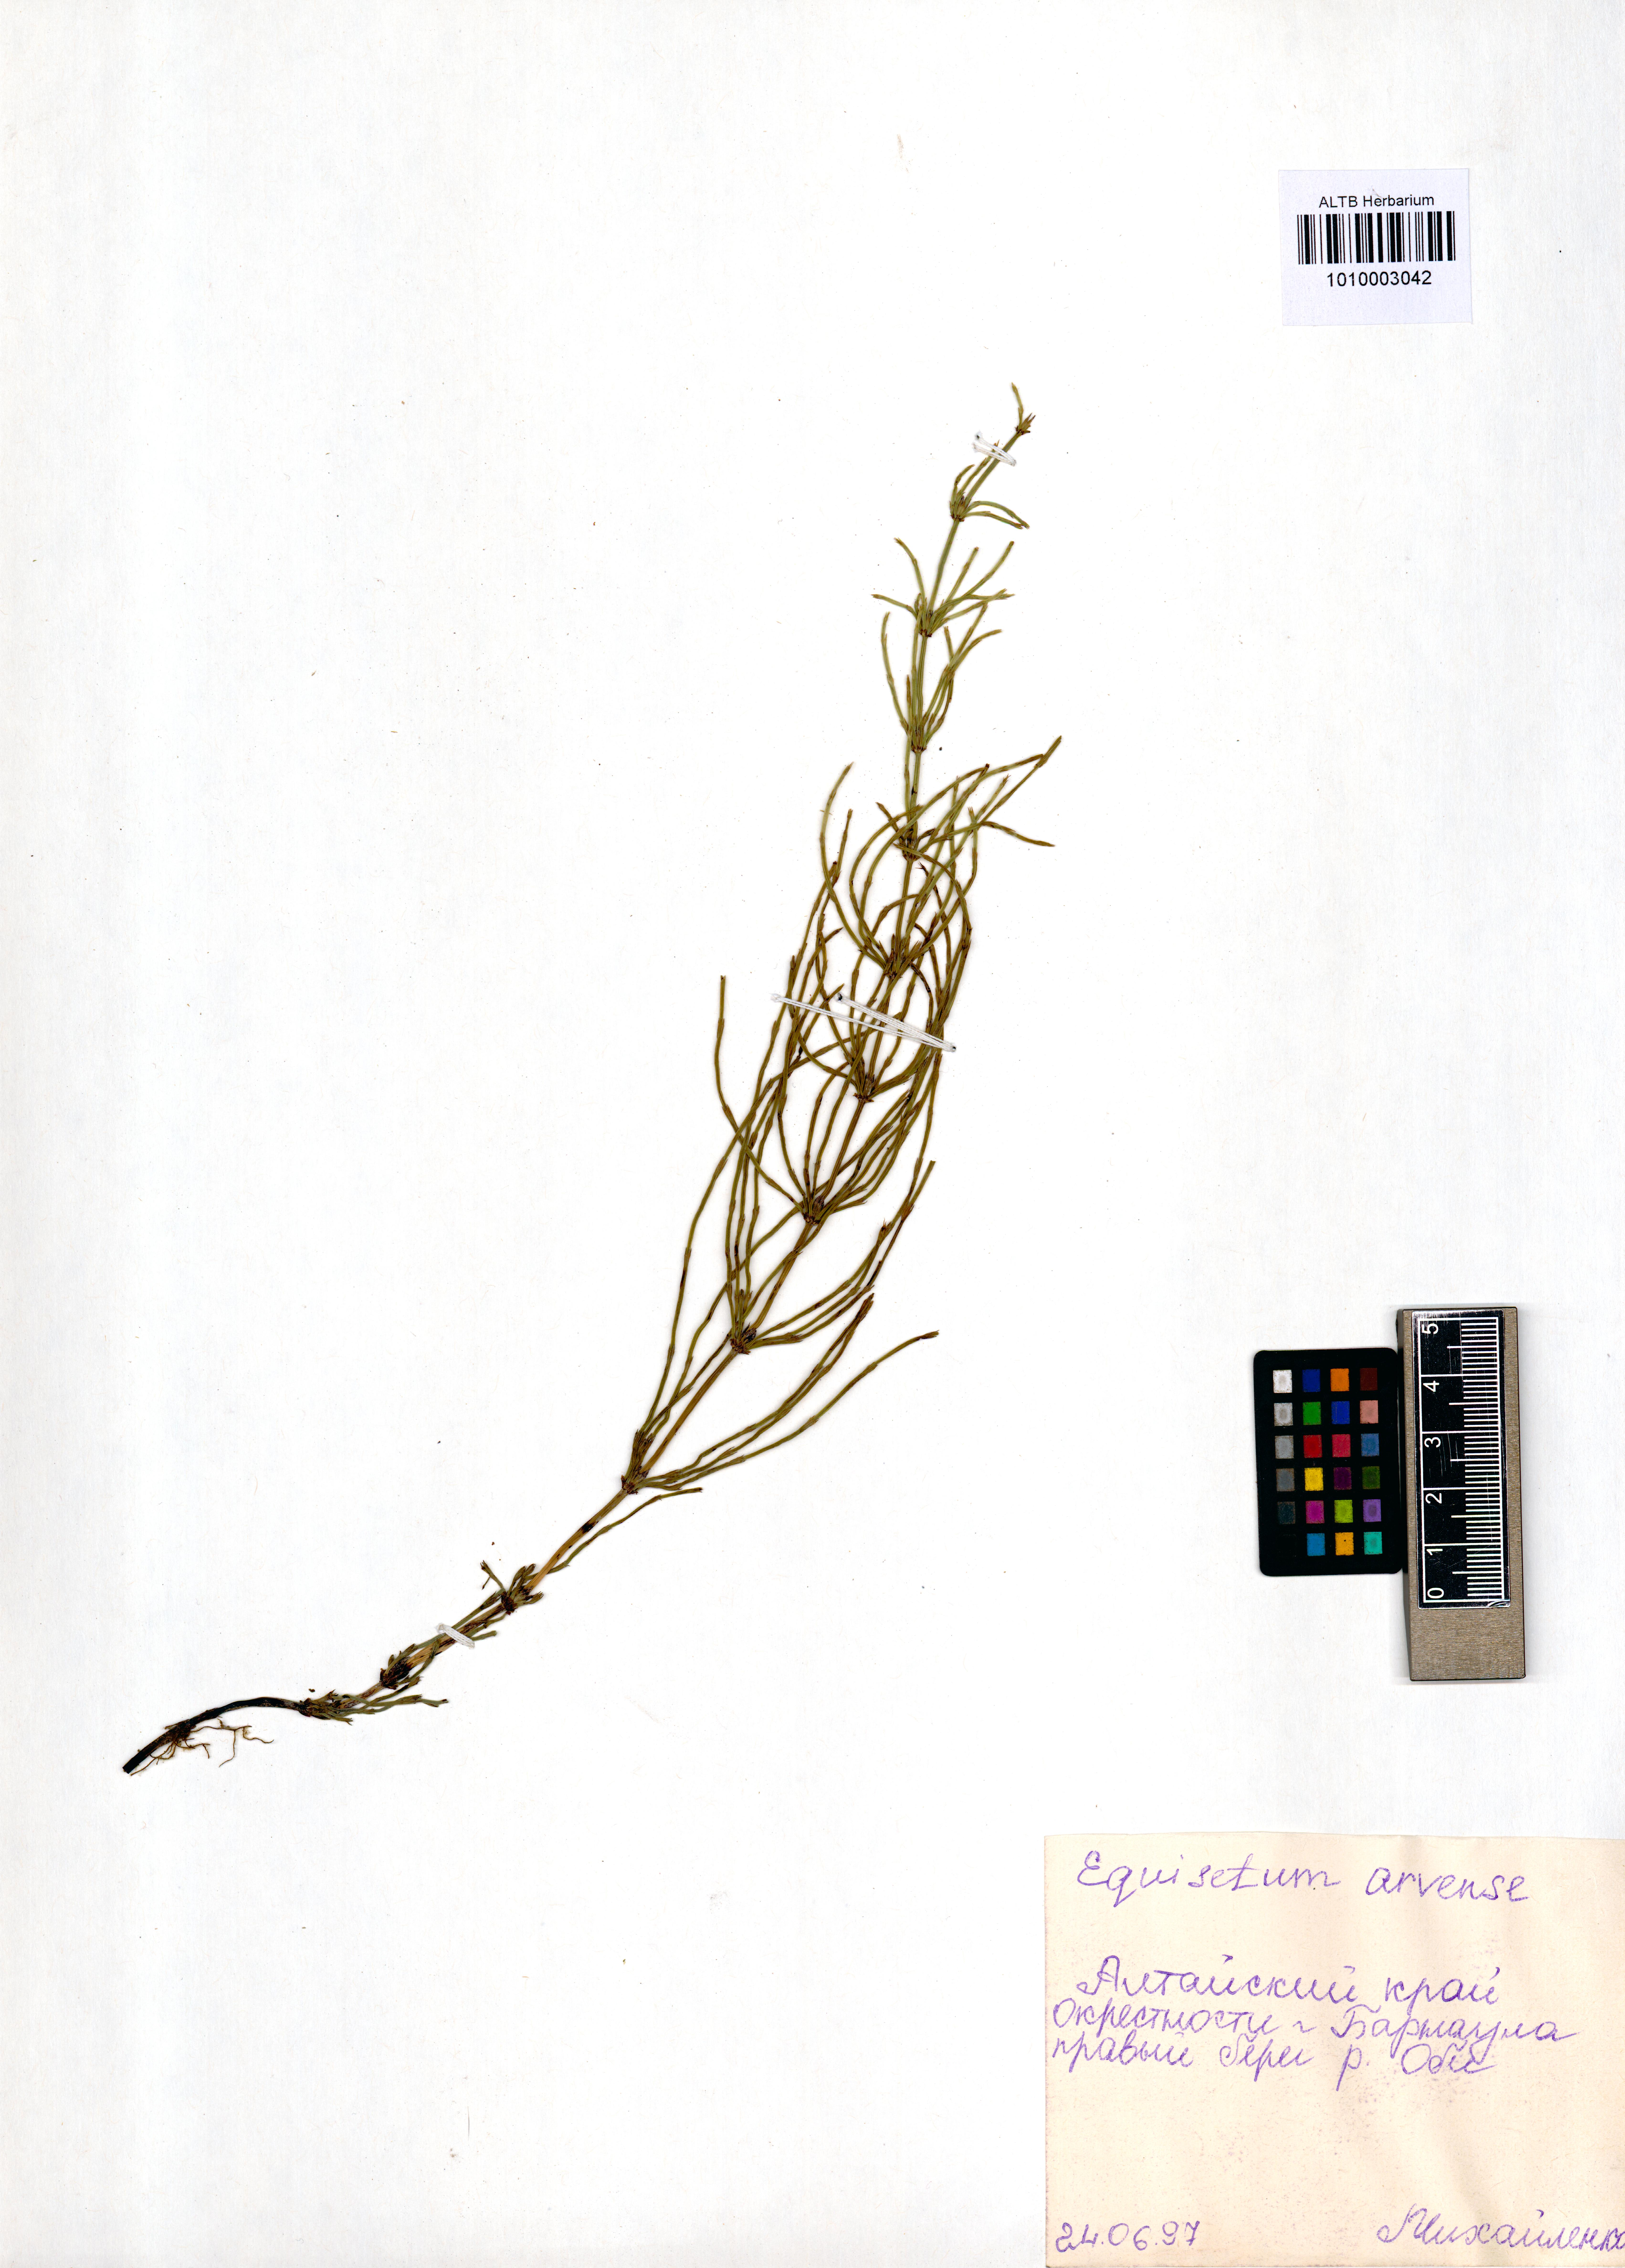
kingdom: Plantae
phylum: Tracheophyta
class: Polypodiopsida
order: Equisetales
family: Equisetaceae
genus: Equisetum
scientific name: Equisetum arvense
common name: Field horsetail
